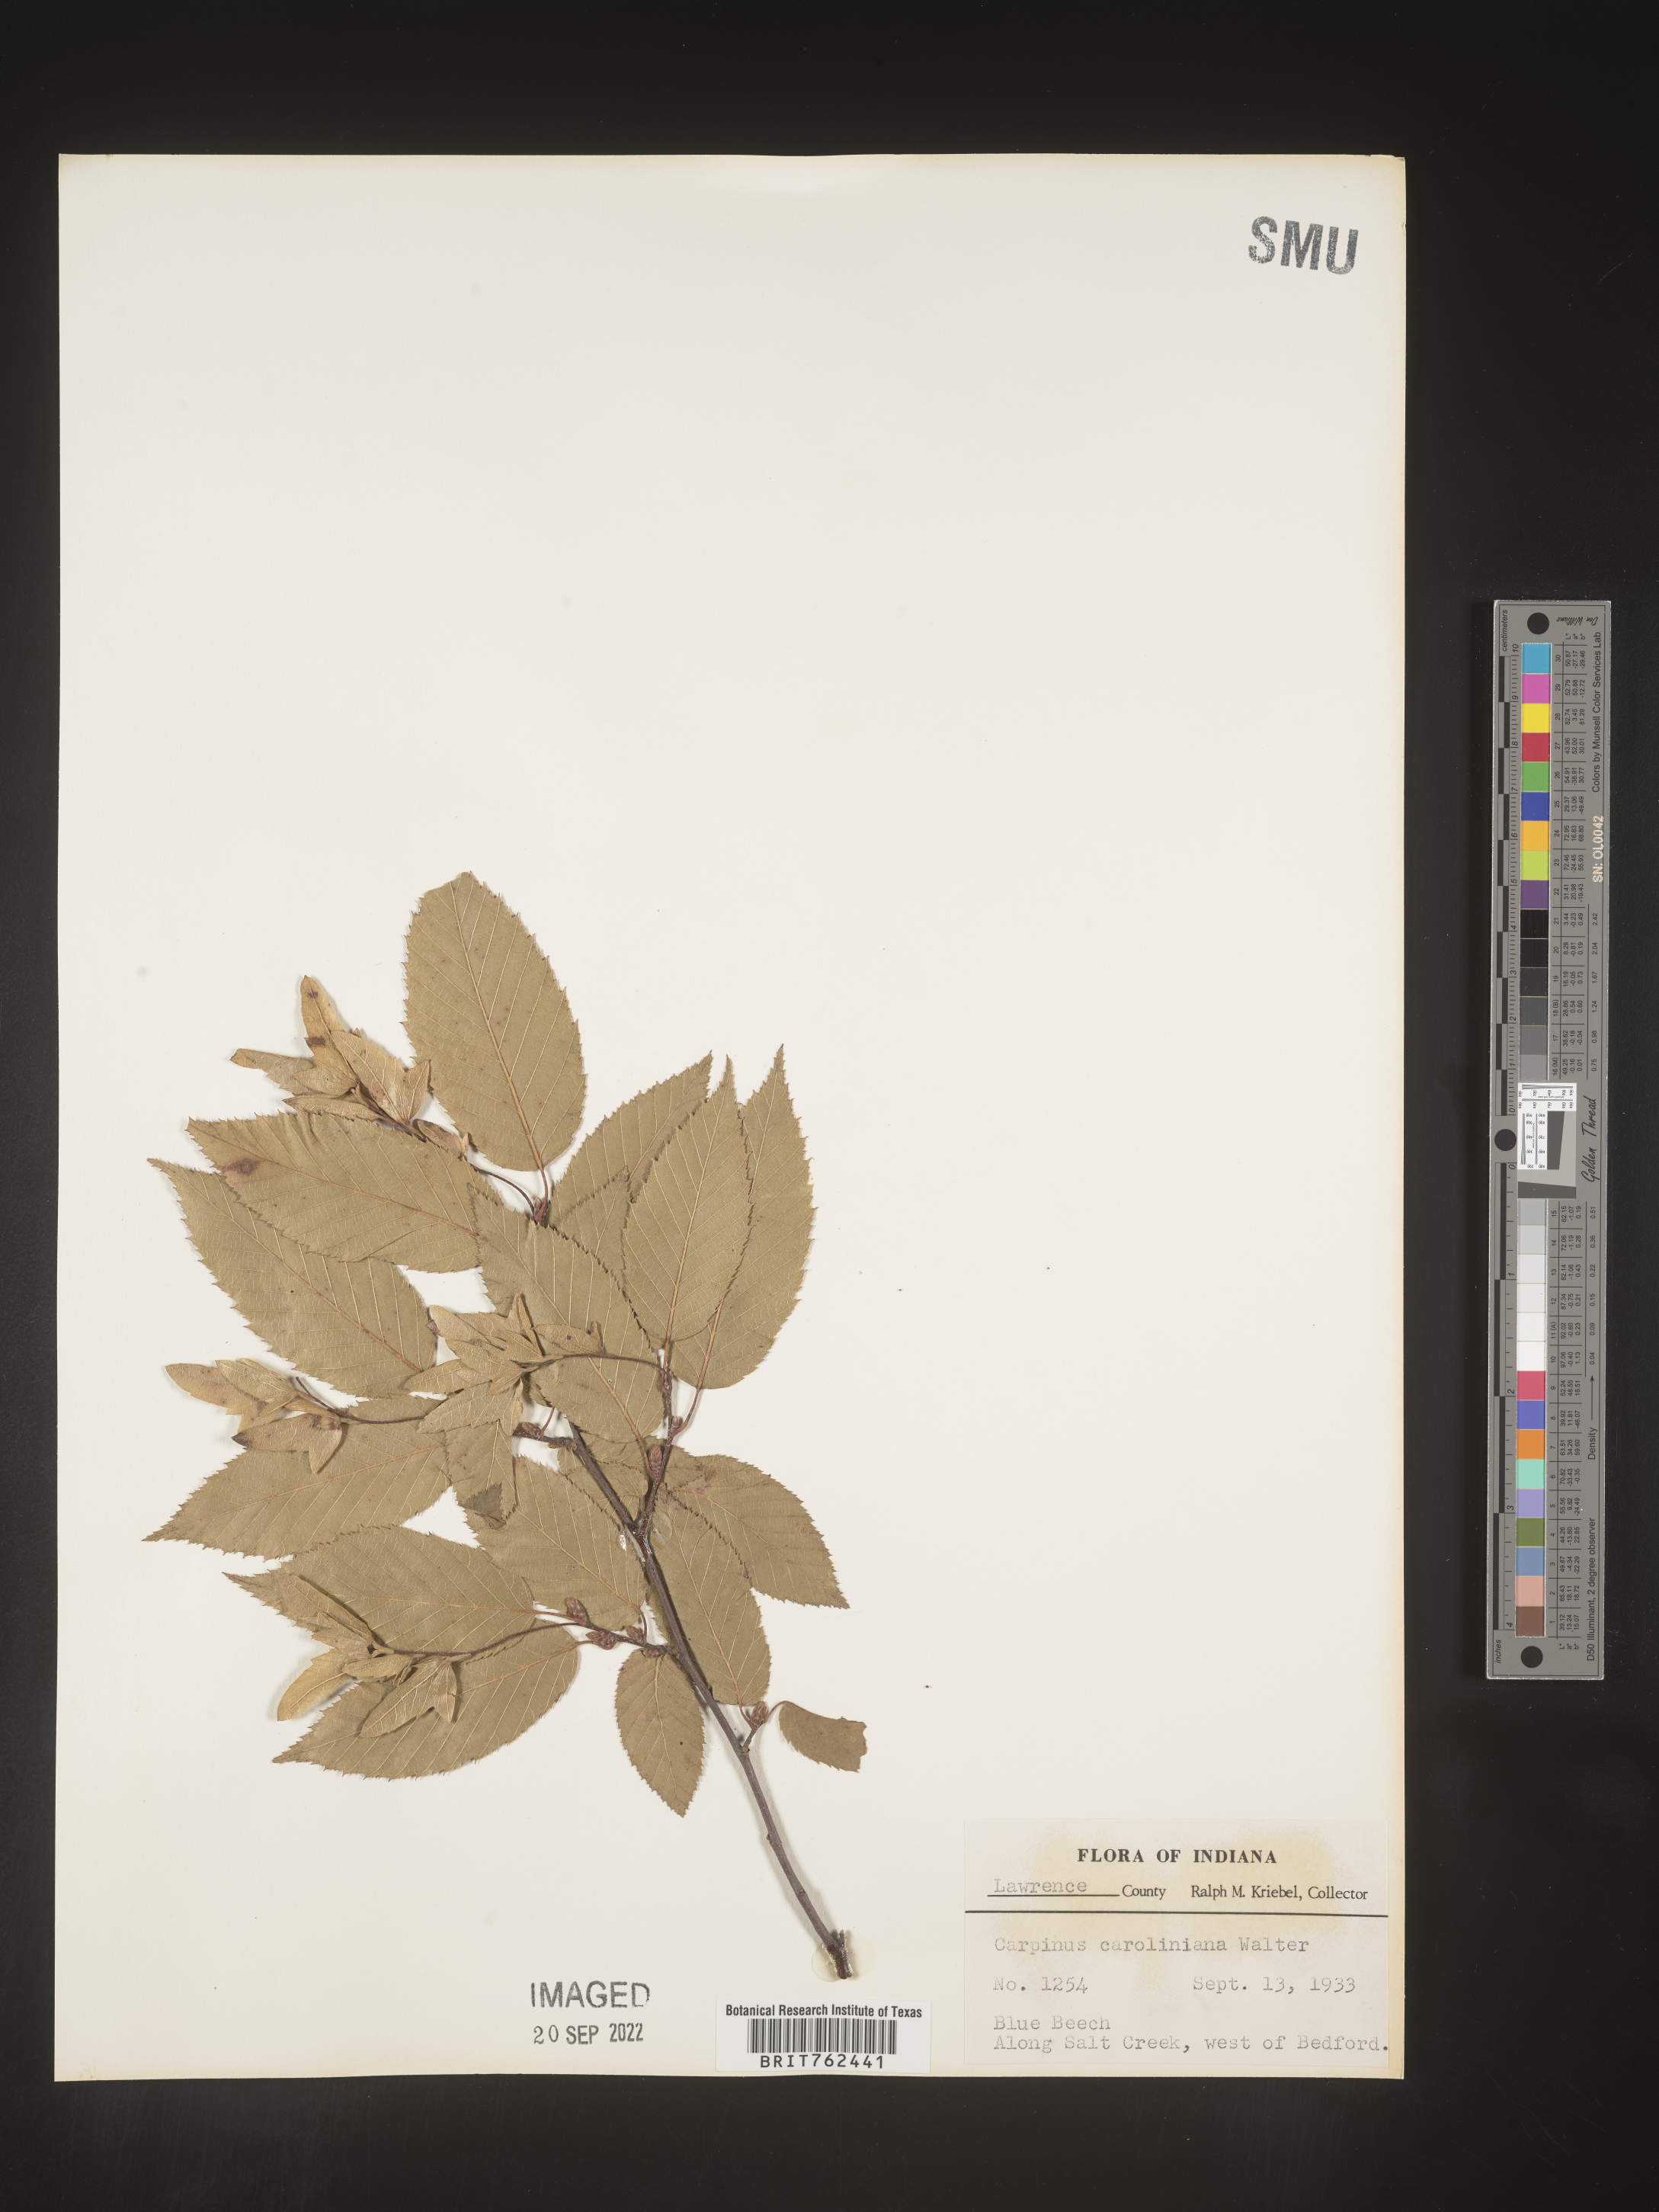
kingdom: Plantae
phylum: Tracheophyta
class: Magnoliopsida
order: Fagales
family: Betulaceae
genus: Carpinus
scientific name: Carpinus caroliniana
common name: American hornbeam
